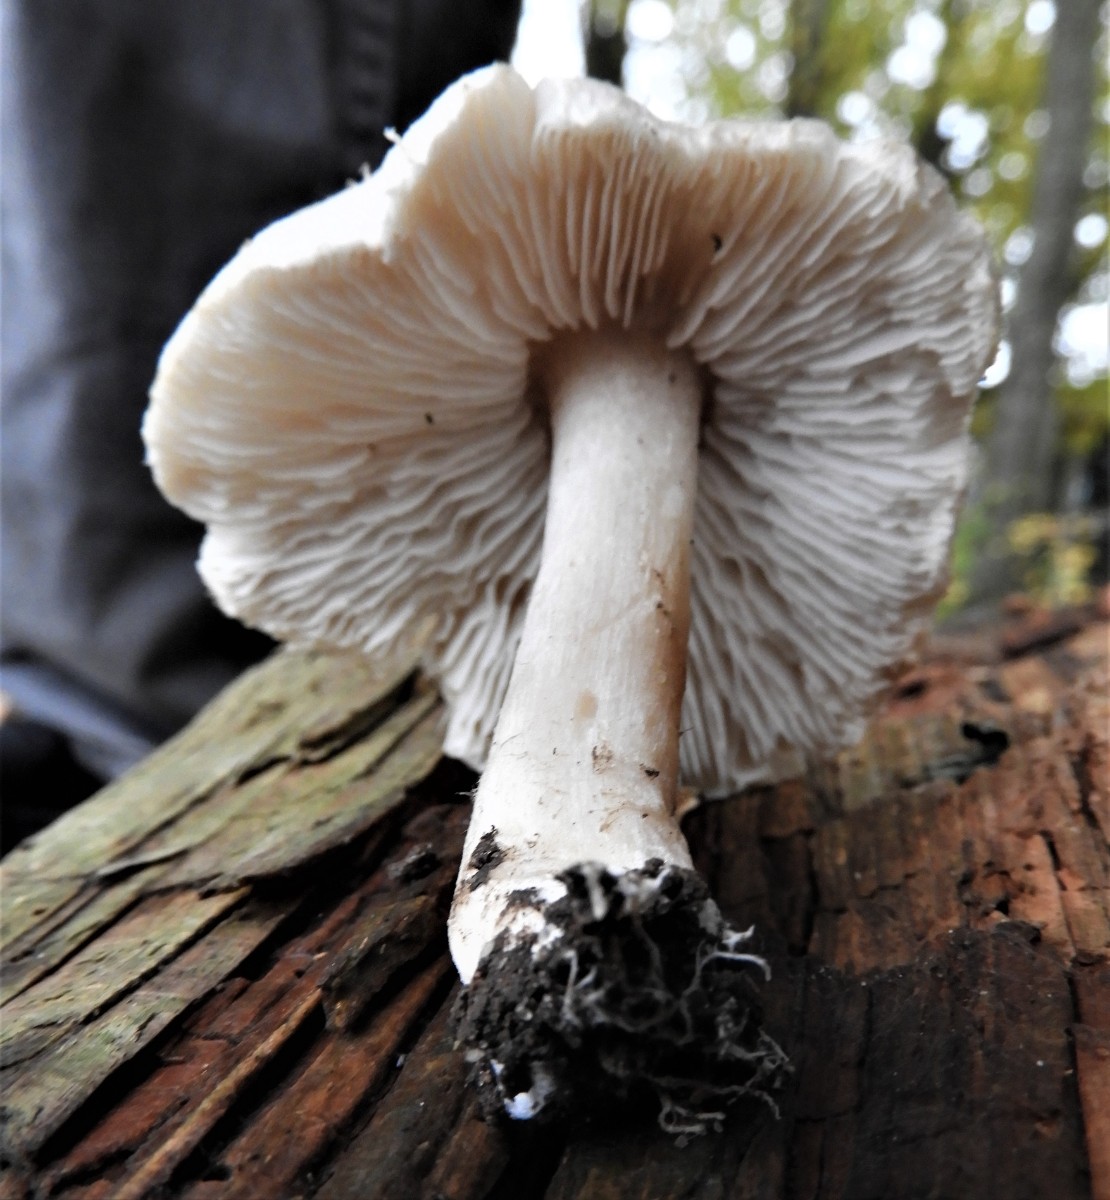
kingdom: Fungi
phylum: Basidiomycota
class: Agaricomycetes
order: Agaricales
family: Tricholomataceae
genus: Tricholoma
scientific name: Tricholoma scalpturatum
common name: gulplettet ridderhat
